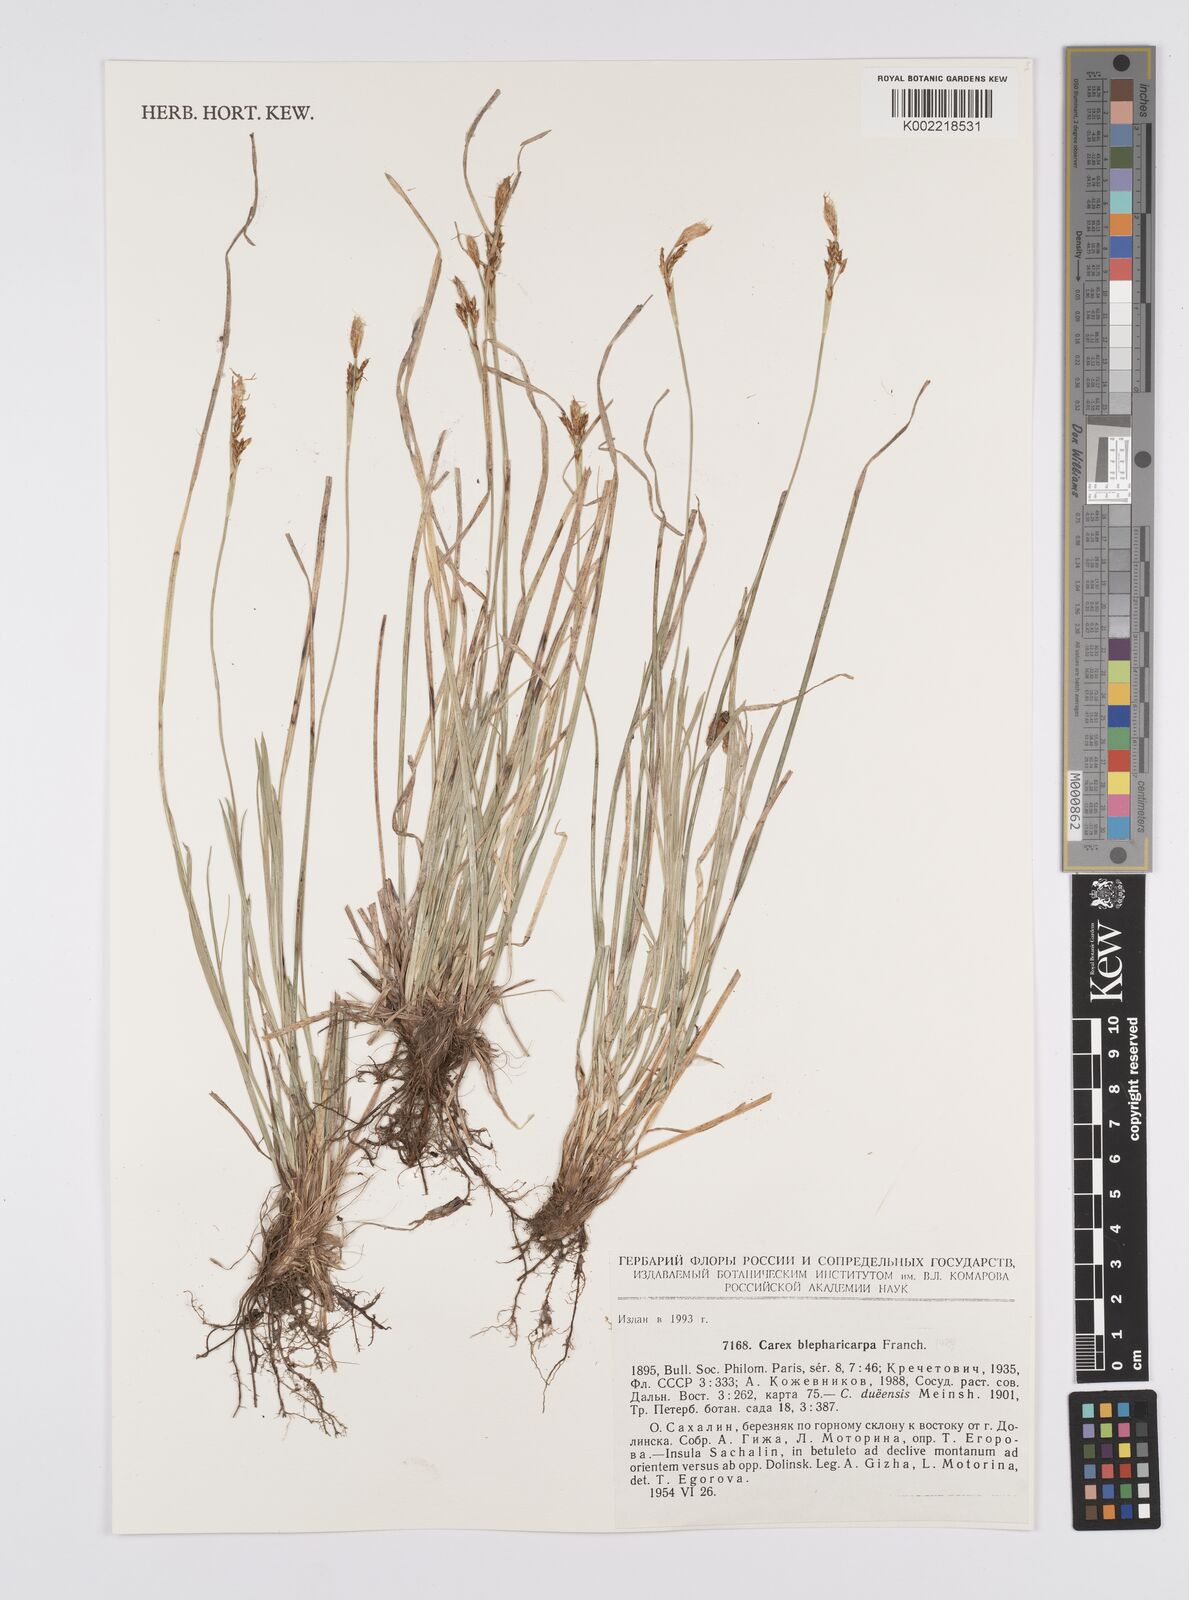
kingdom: Plantae
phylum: Tracheophyta
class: Liliopsida
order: Poales
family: Cyperaceae
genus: Carex
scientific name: Carex blepharicarpa
